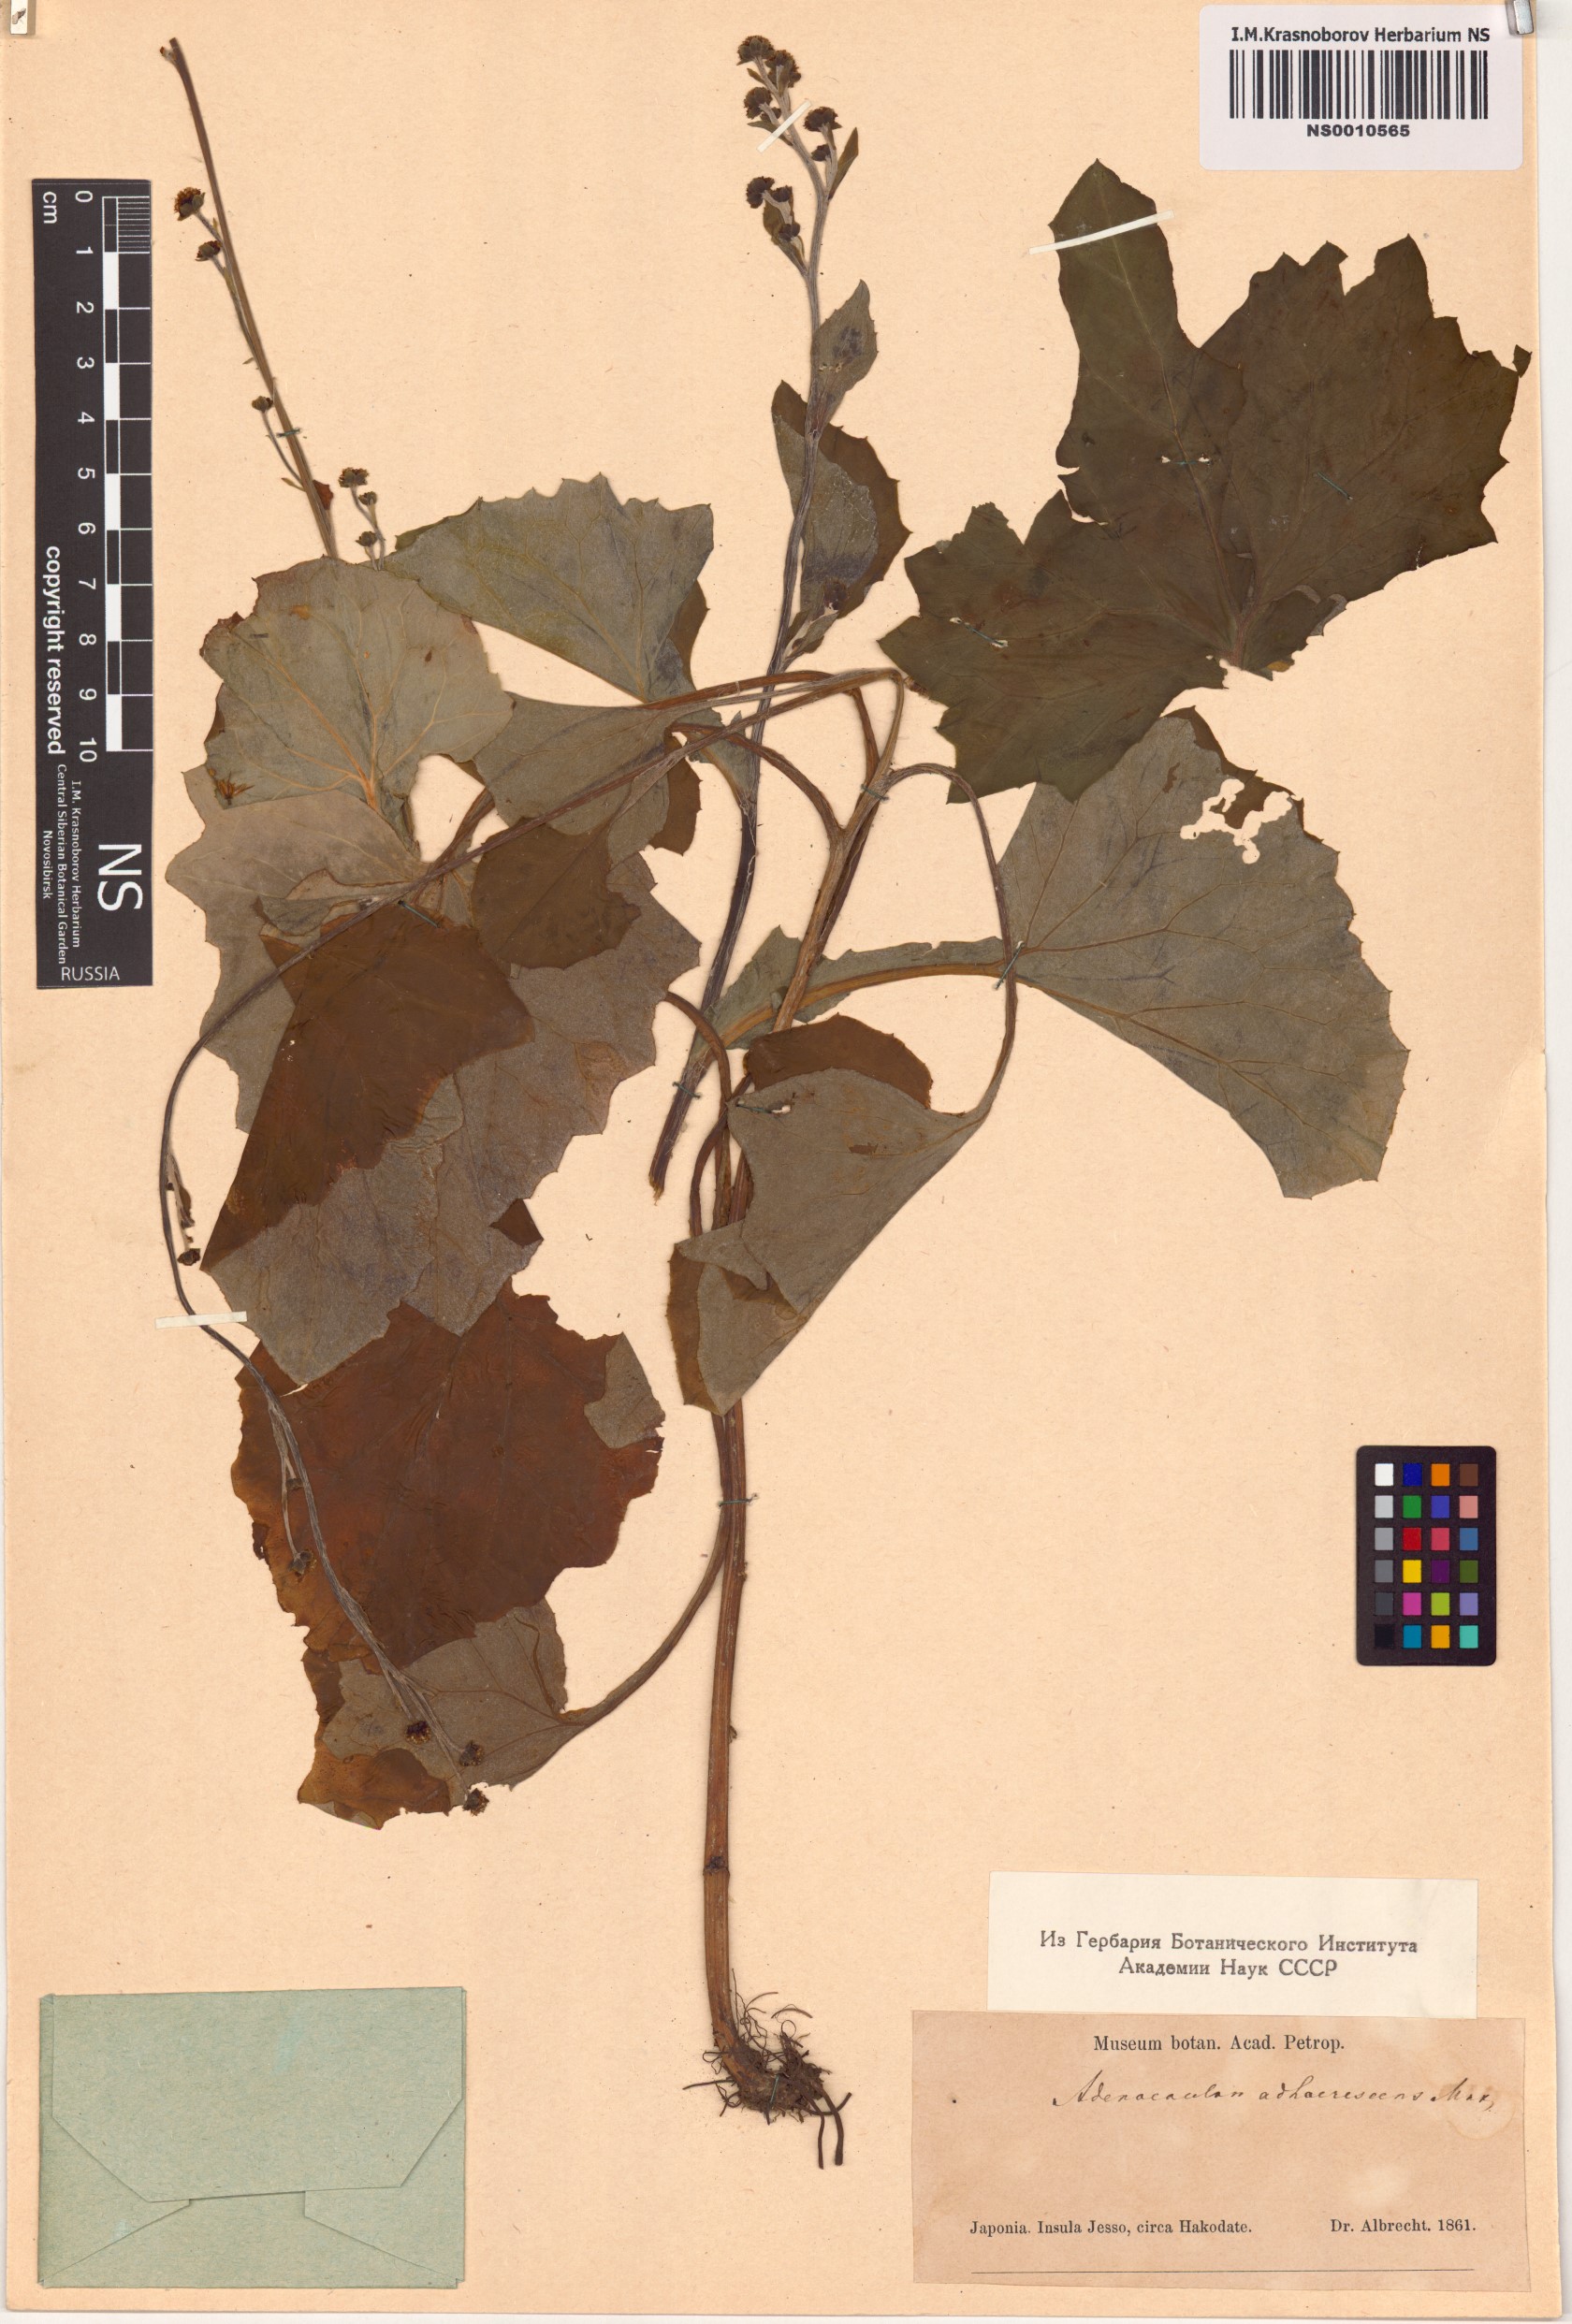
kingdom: Plantae
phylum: Tracheophyta
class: Magnoliopsida
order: Asterales
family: Asteraceae
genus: Adenocaulon
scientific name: Adenocaulon himalaicum
